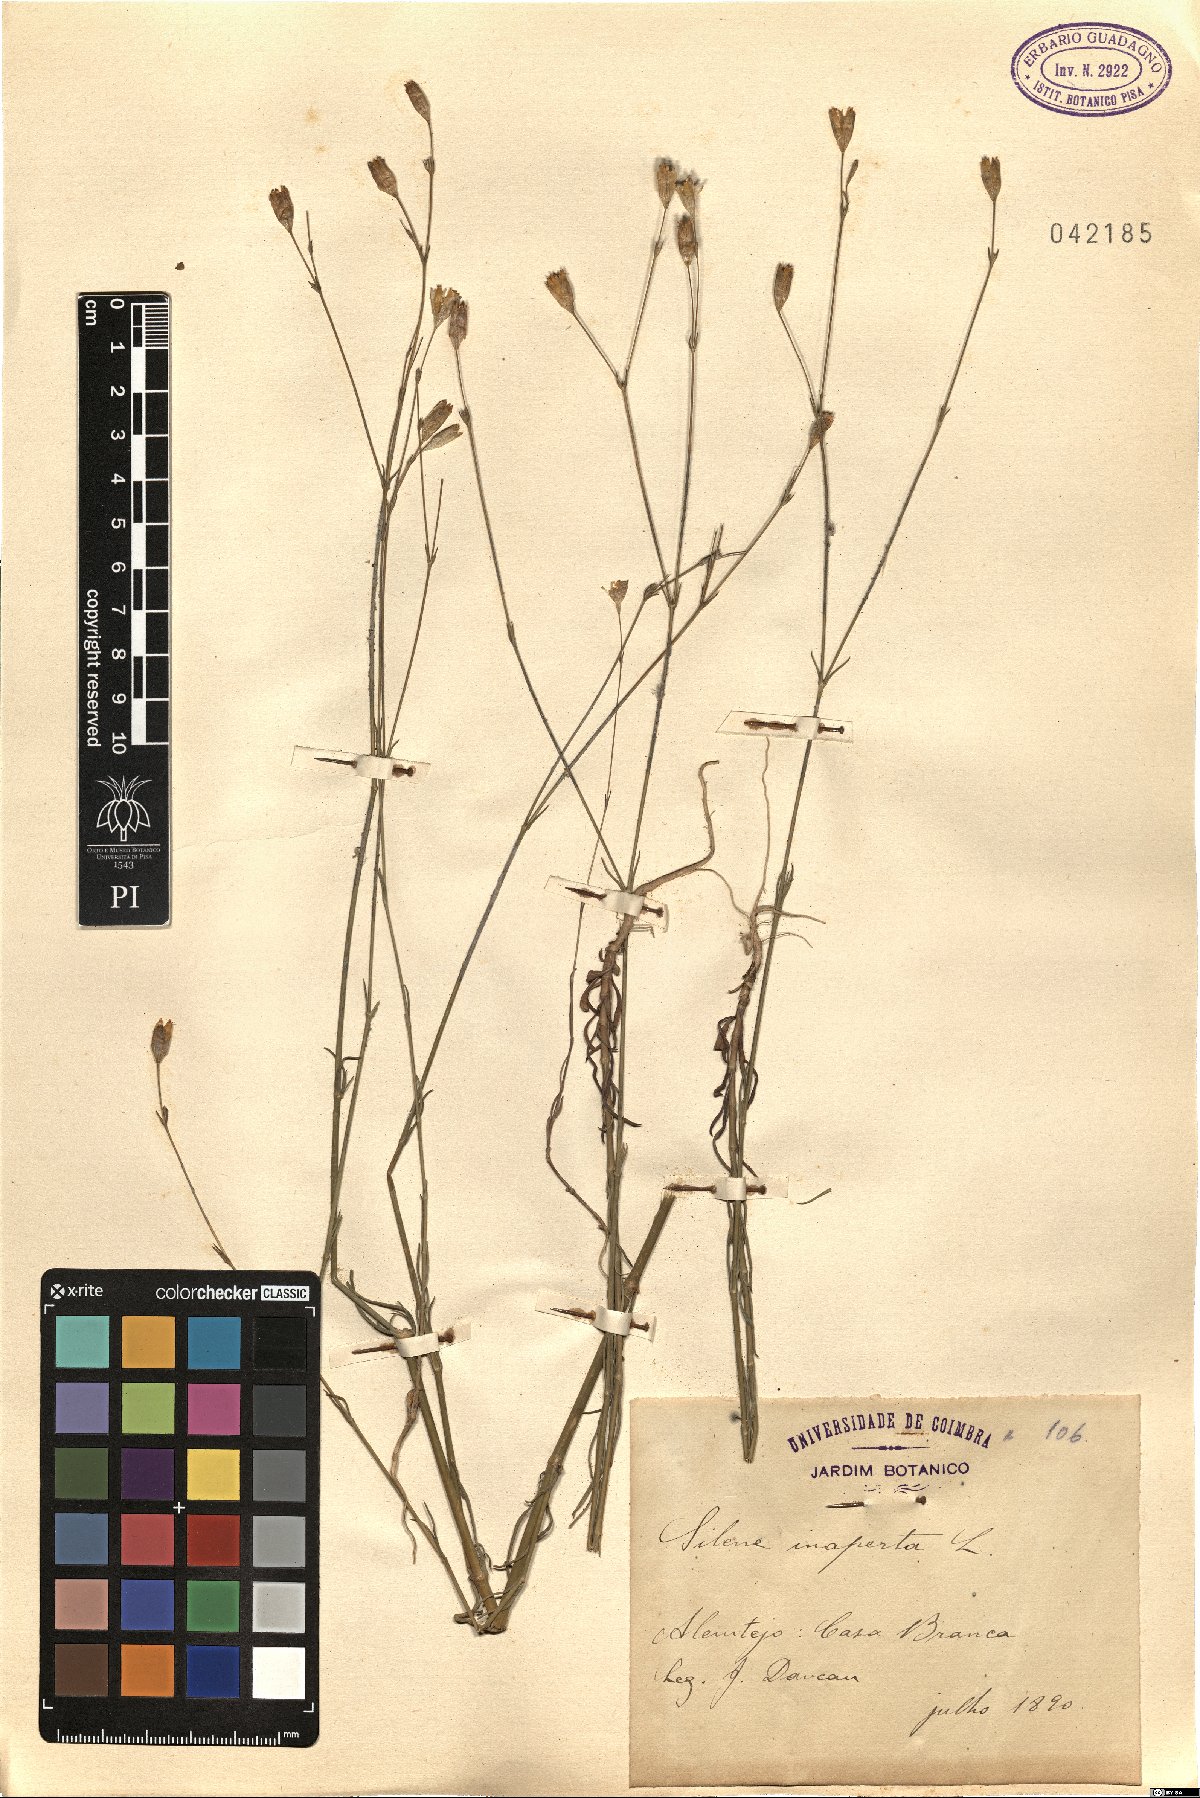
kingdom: Plantae
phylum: Tracheophyta
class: Magnoliopsida
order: Caryophyllales
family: Caryophyllaceae
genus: Silene
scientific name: Silene inaperta
